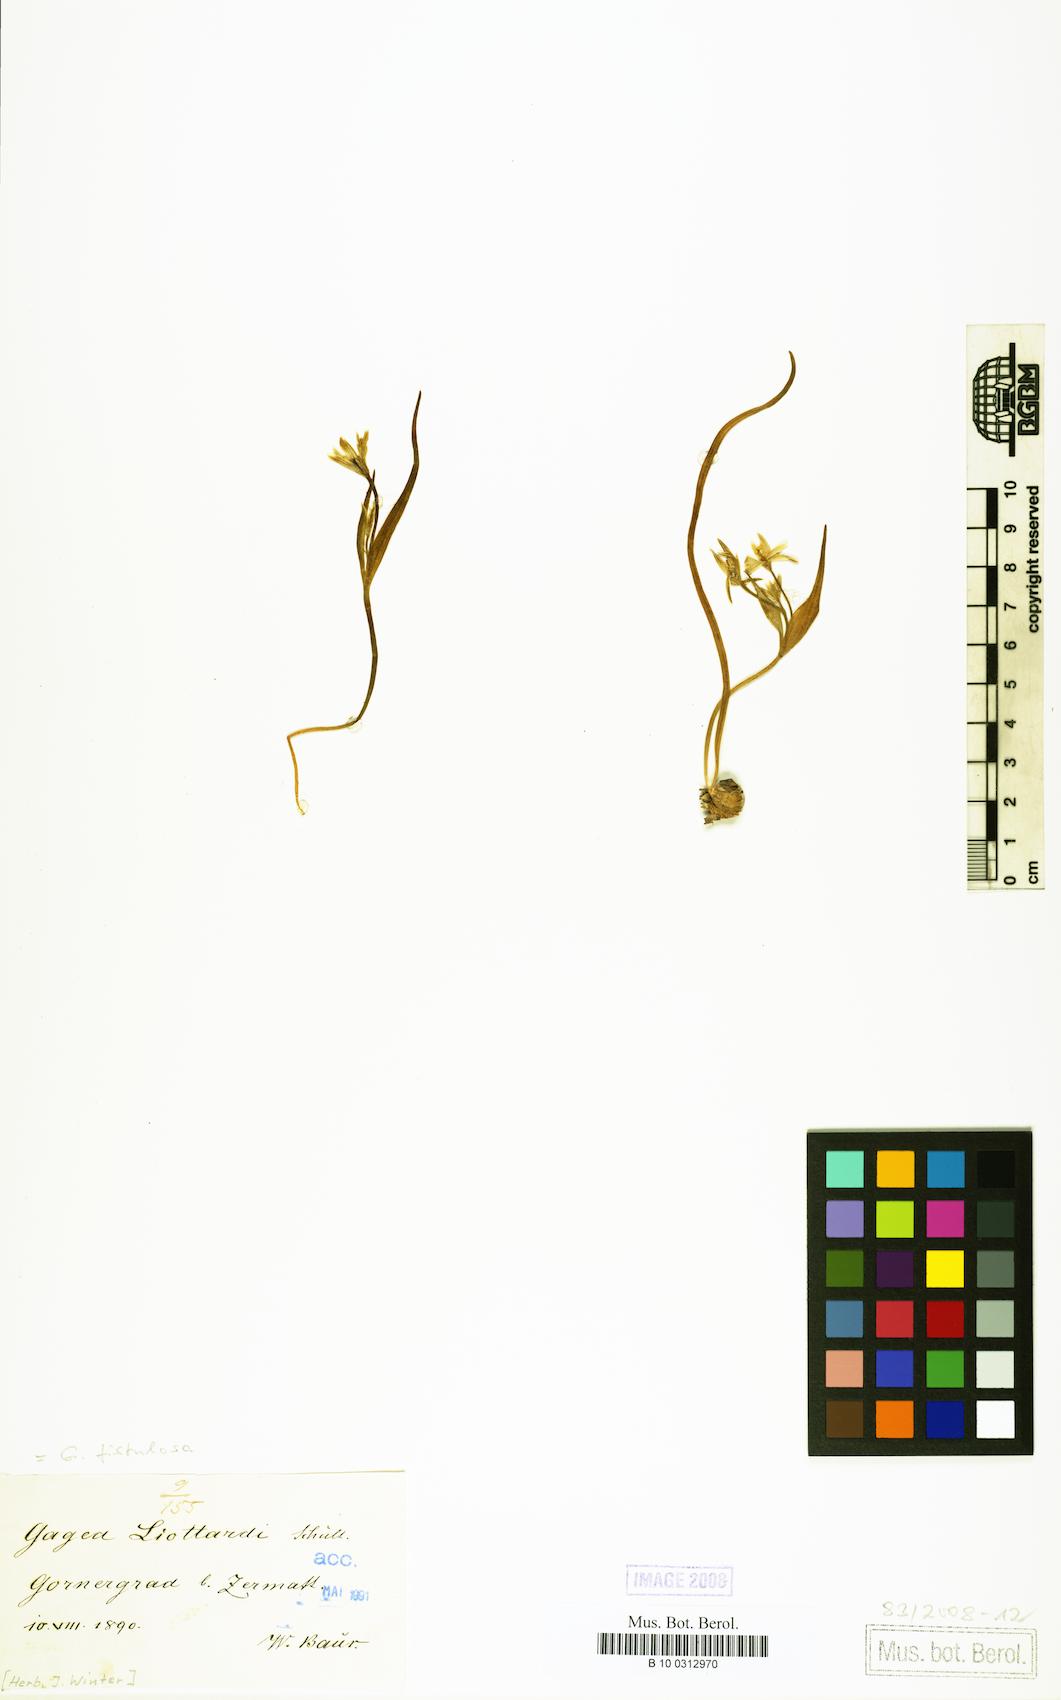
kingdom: Plantae
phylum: Tracheophyta
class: Liliopsida
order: Liliales
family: Liliaceae
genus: Gagea
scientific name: Gagea
